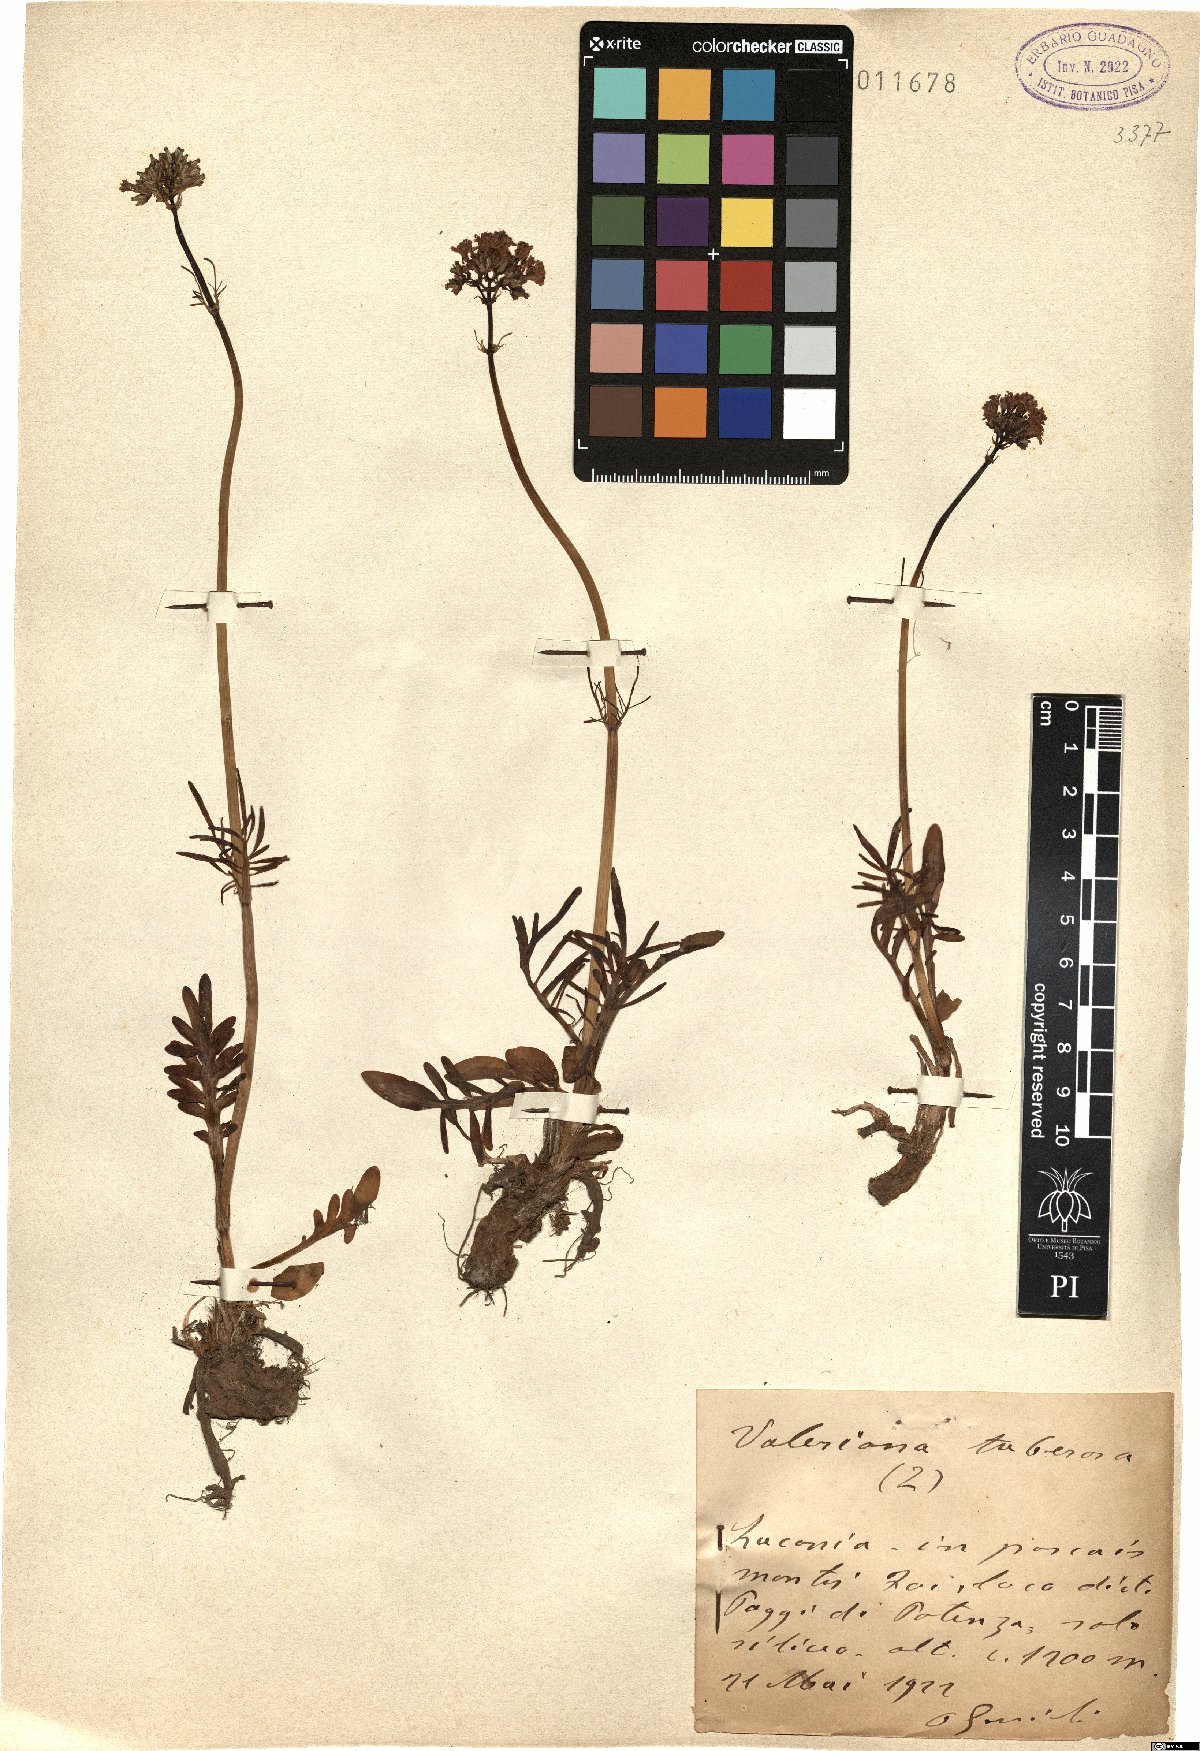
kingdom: Plantae
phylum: Tracheophyta
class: Magnoliopsida
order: Dipsacales
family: Caprifoliaceae
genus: Valeriana
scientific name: Valeriana tuberosa
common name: Tuberous valerian
